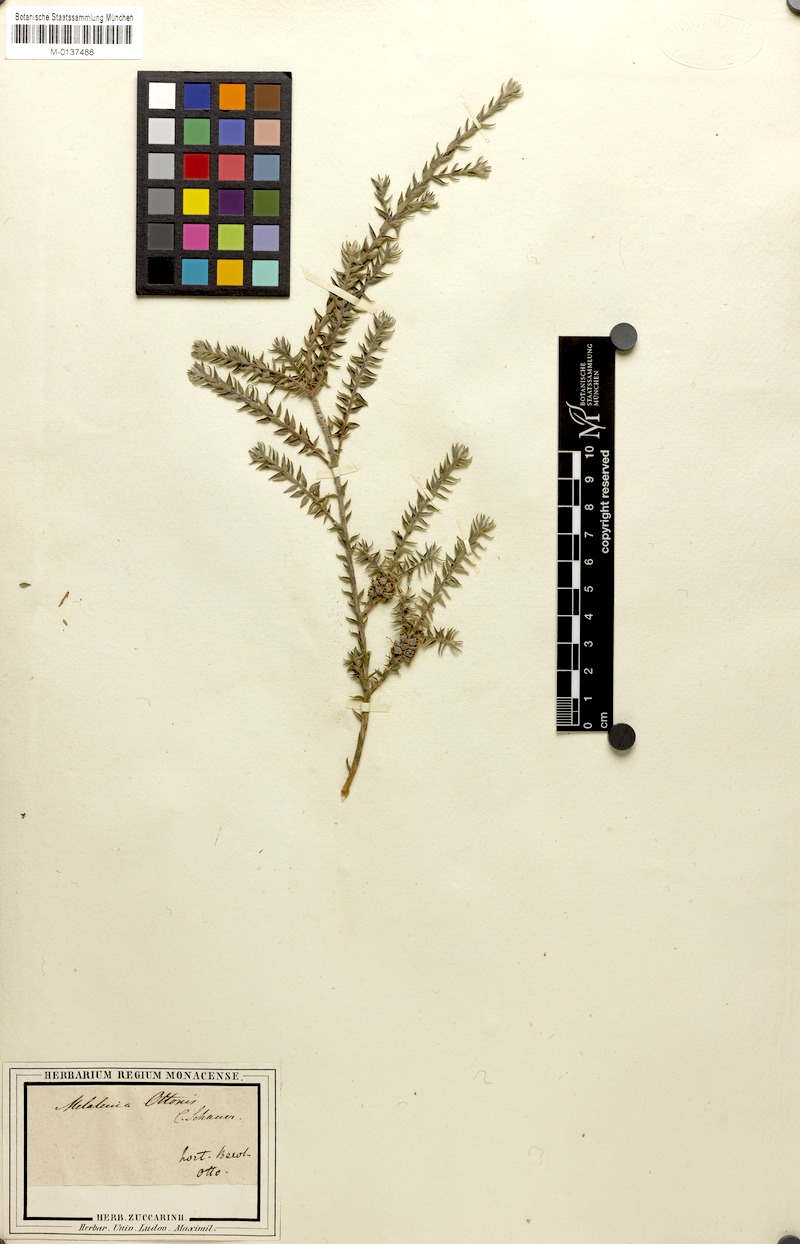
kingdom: Plantae
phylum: Tracheophyta
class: Magnoliopsida
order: Myrtales
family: Myrtaceae
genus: Melaleuca
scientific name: Melaleuca squamea
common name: Swamp melaleuca
